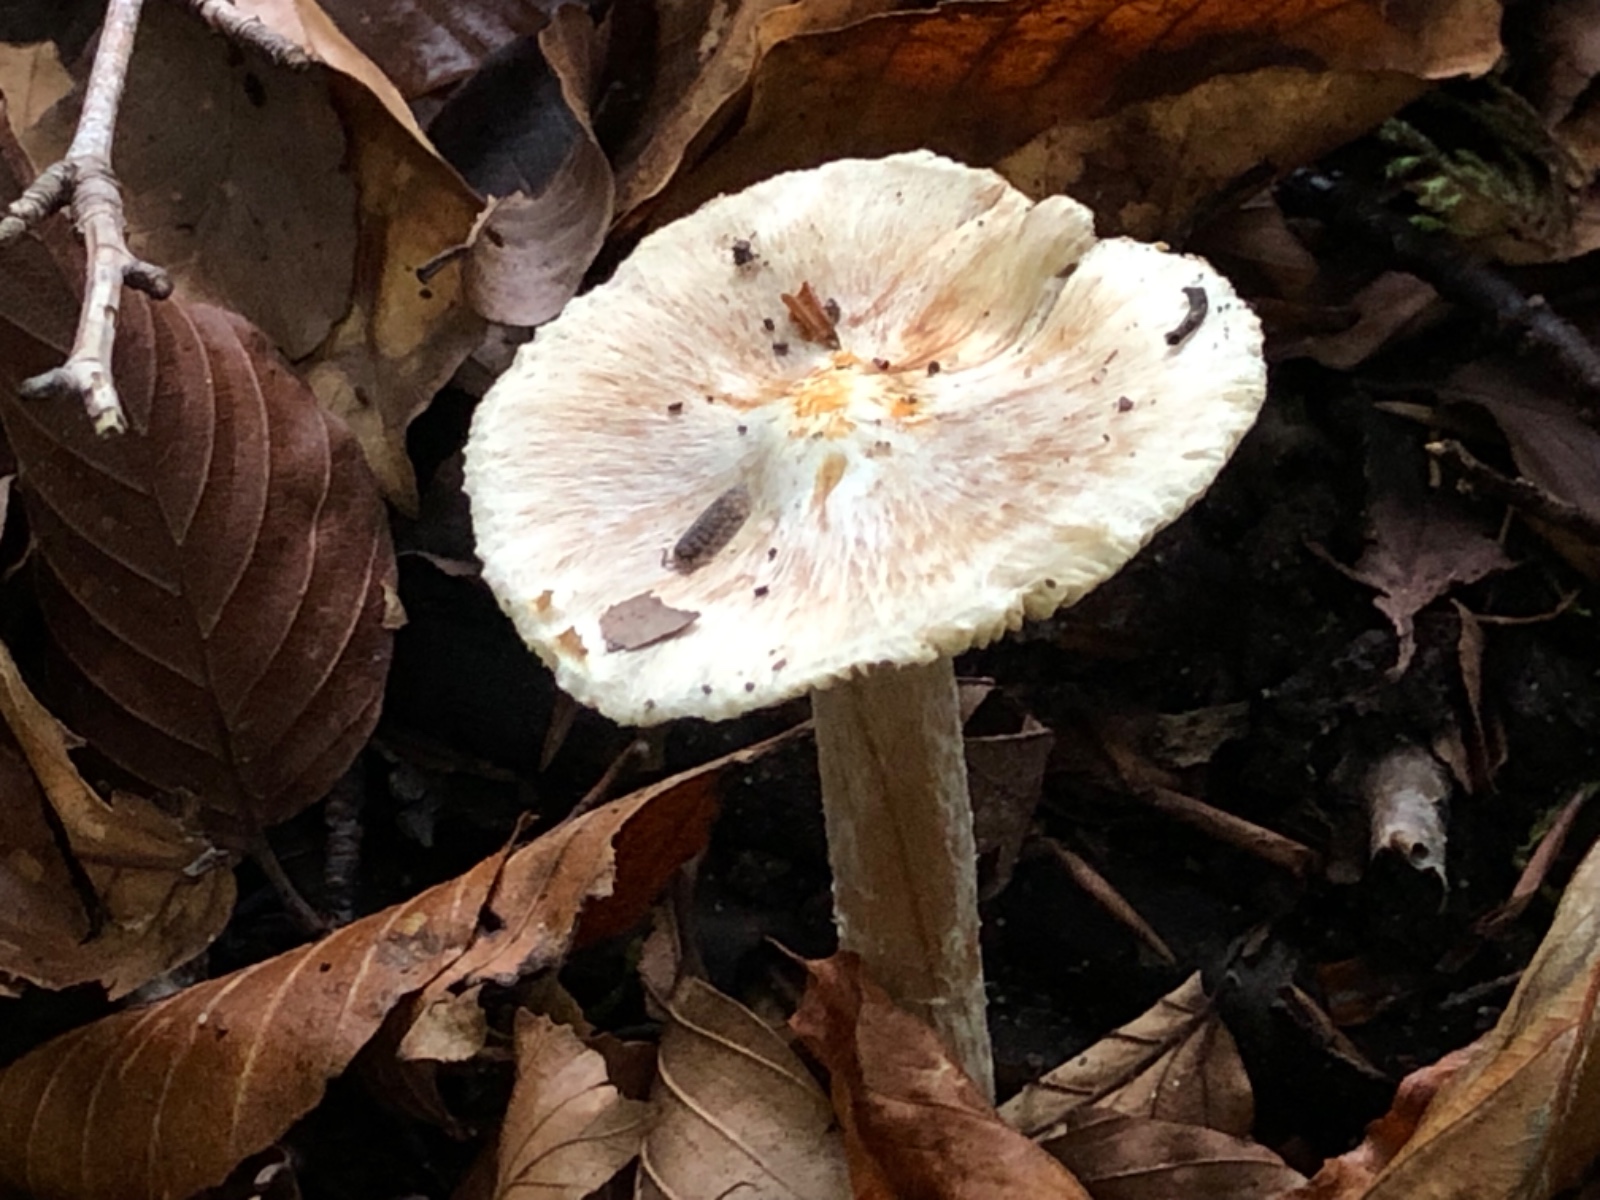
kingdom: Fungi
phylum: Basidiomycota
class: Agaricomycetes
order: Agaricales
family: Inocybaceae
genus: Inosperma
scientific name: Inosperma
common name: Trævlhat
